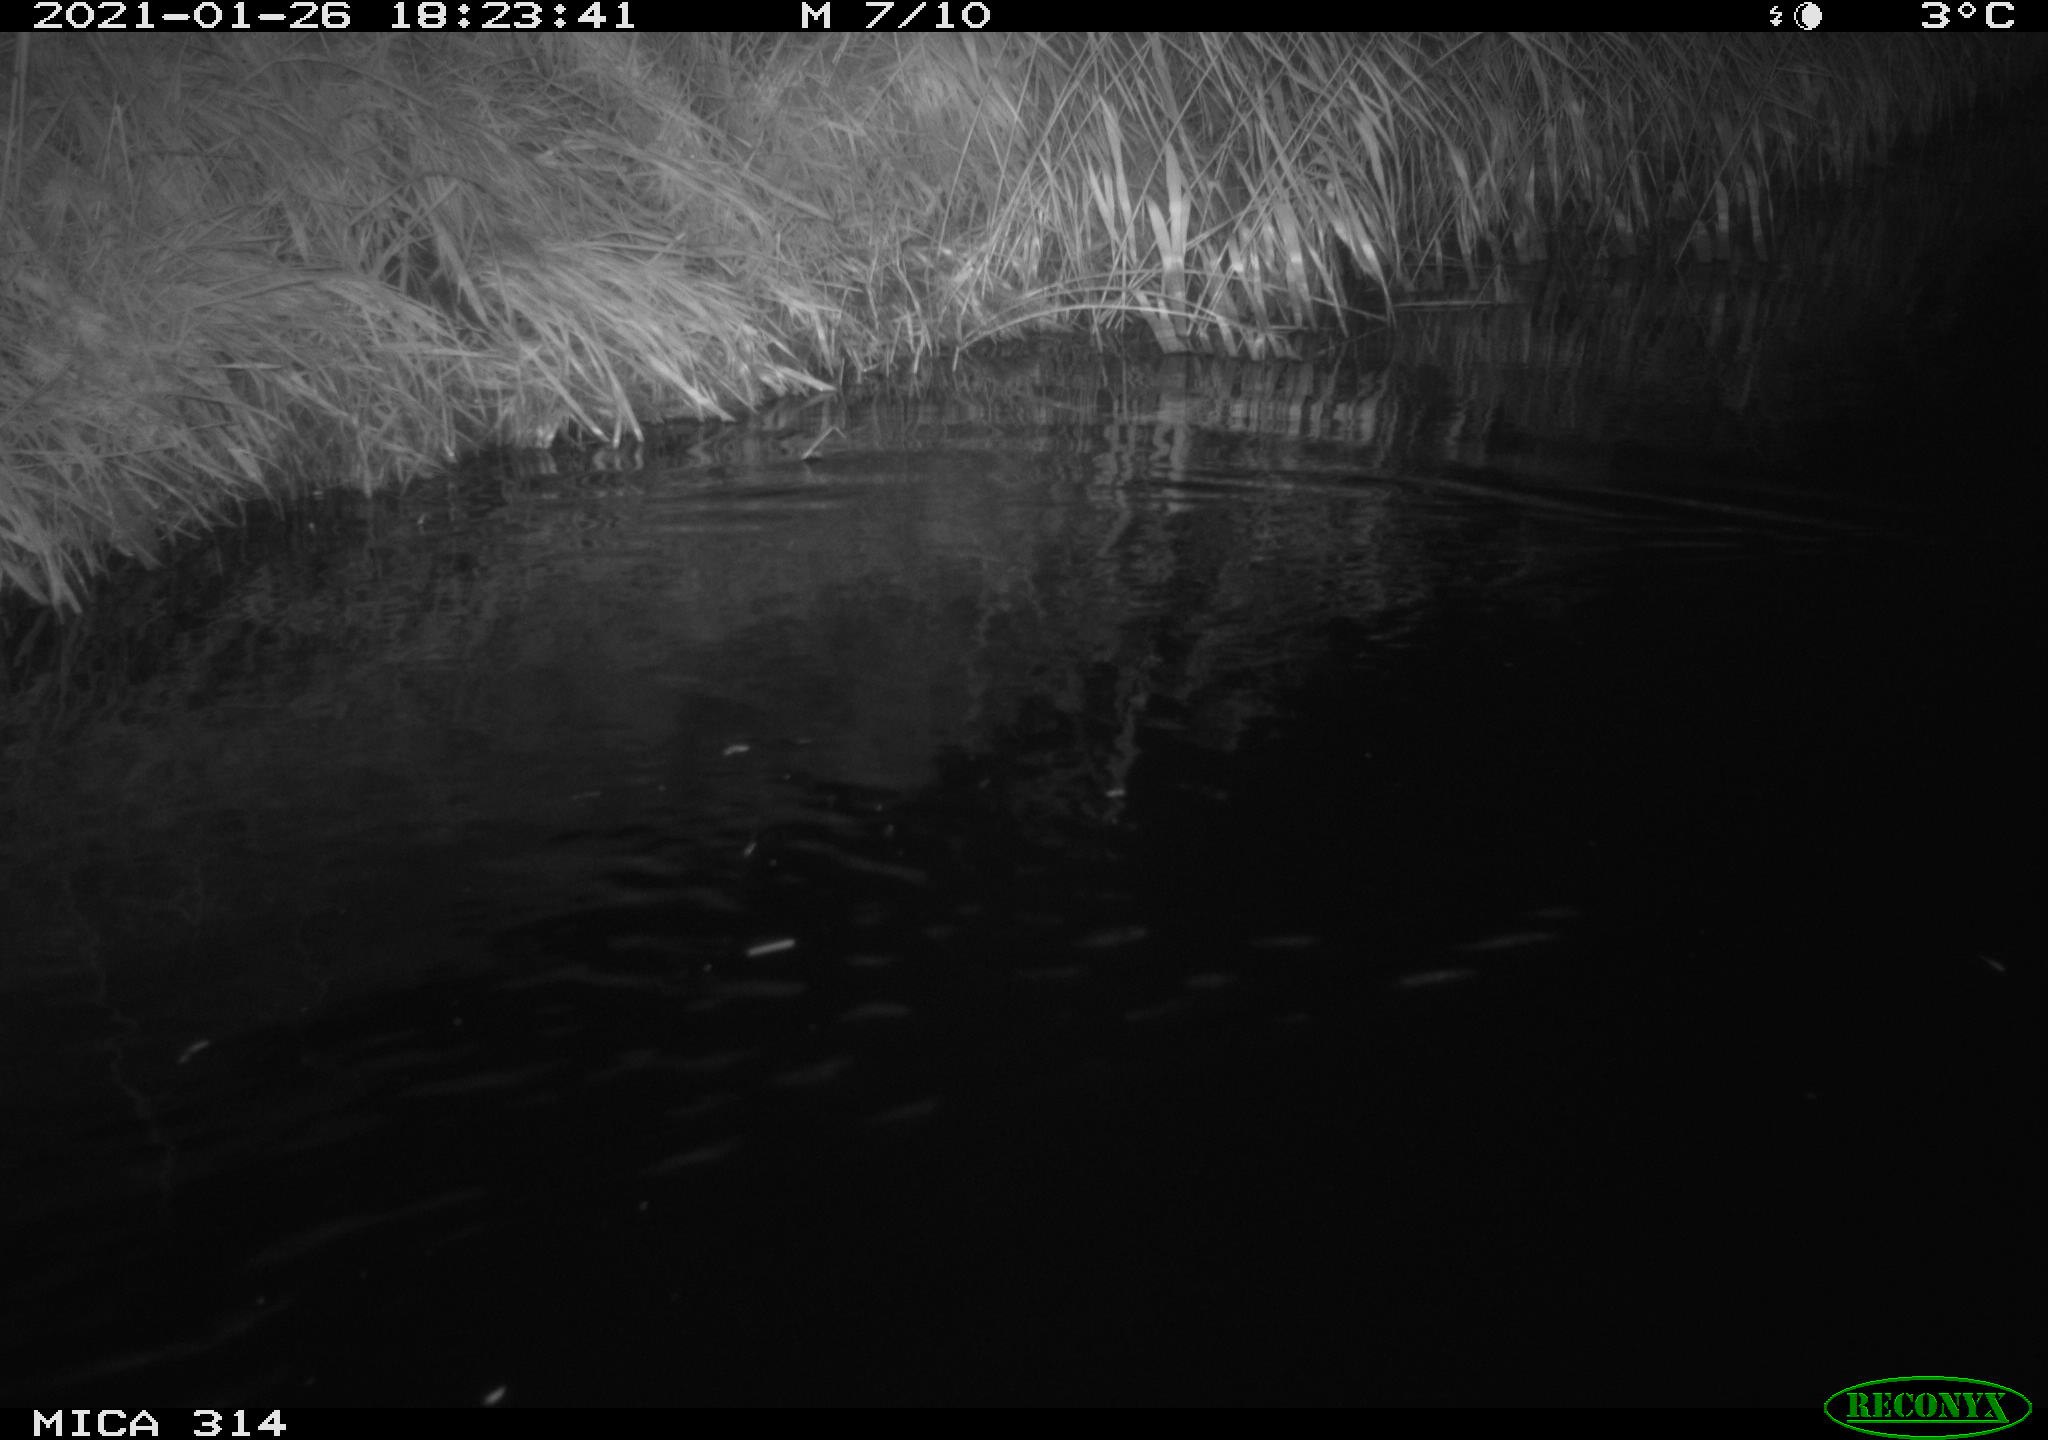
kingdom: Animalia
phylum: Chordata
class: Mammalia
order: Rodentia
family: Muridae
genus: Rattus
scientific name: Rattus norvegicus
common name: Brown rat
